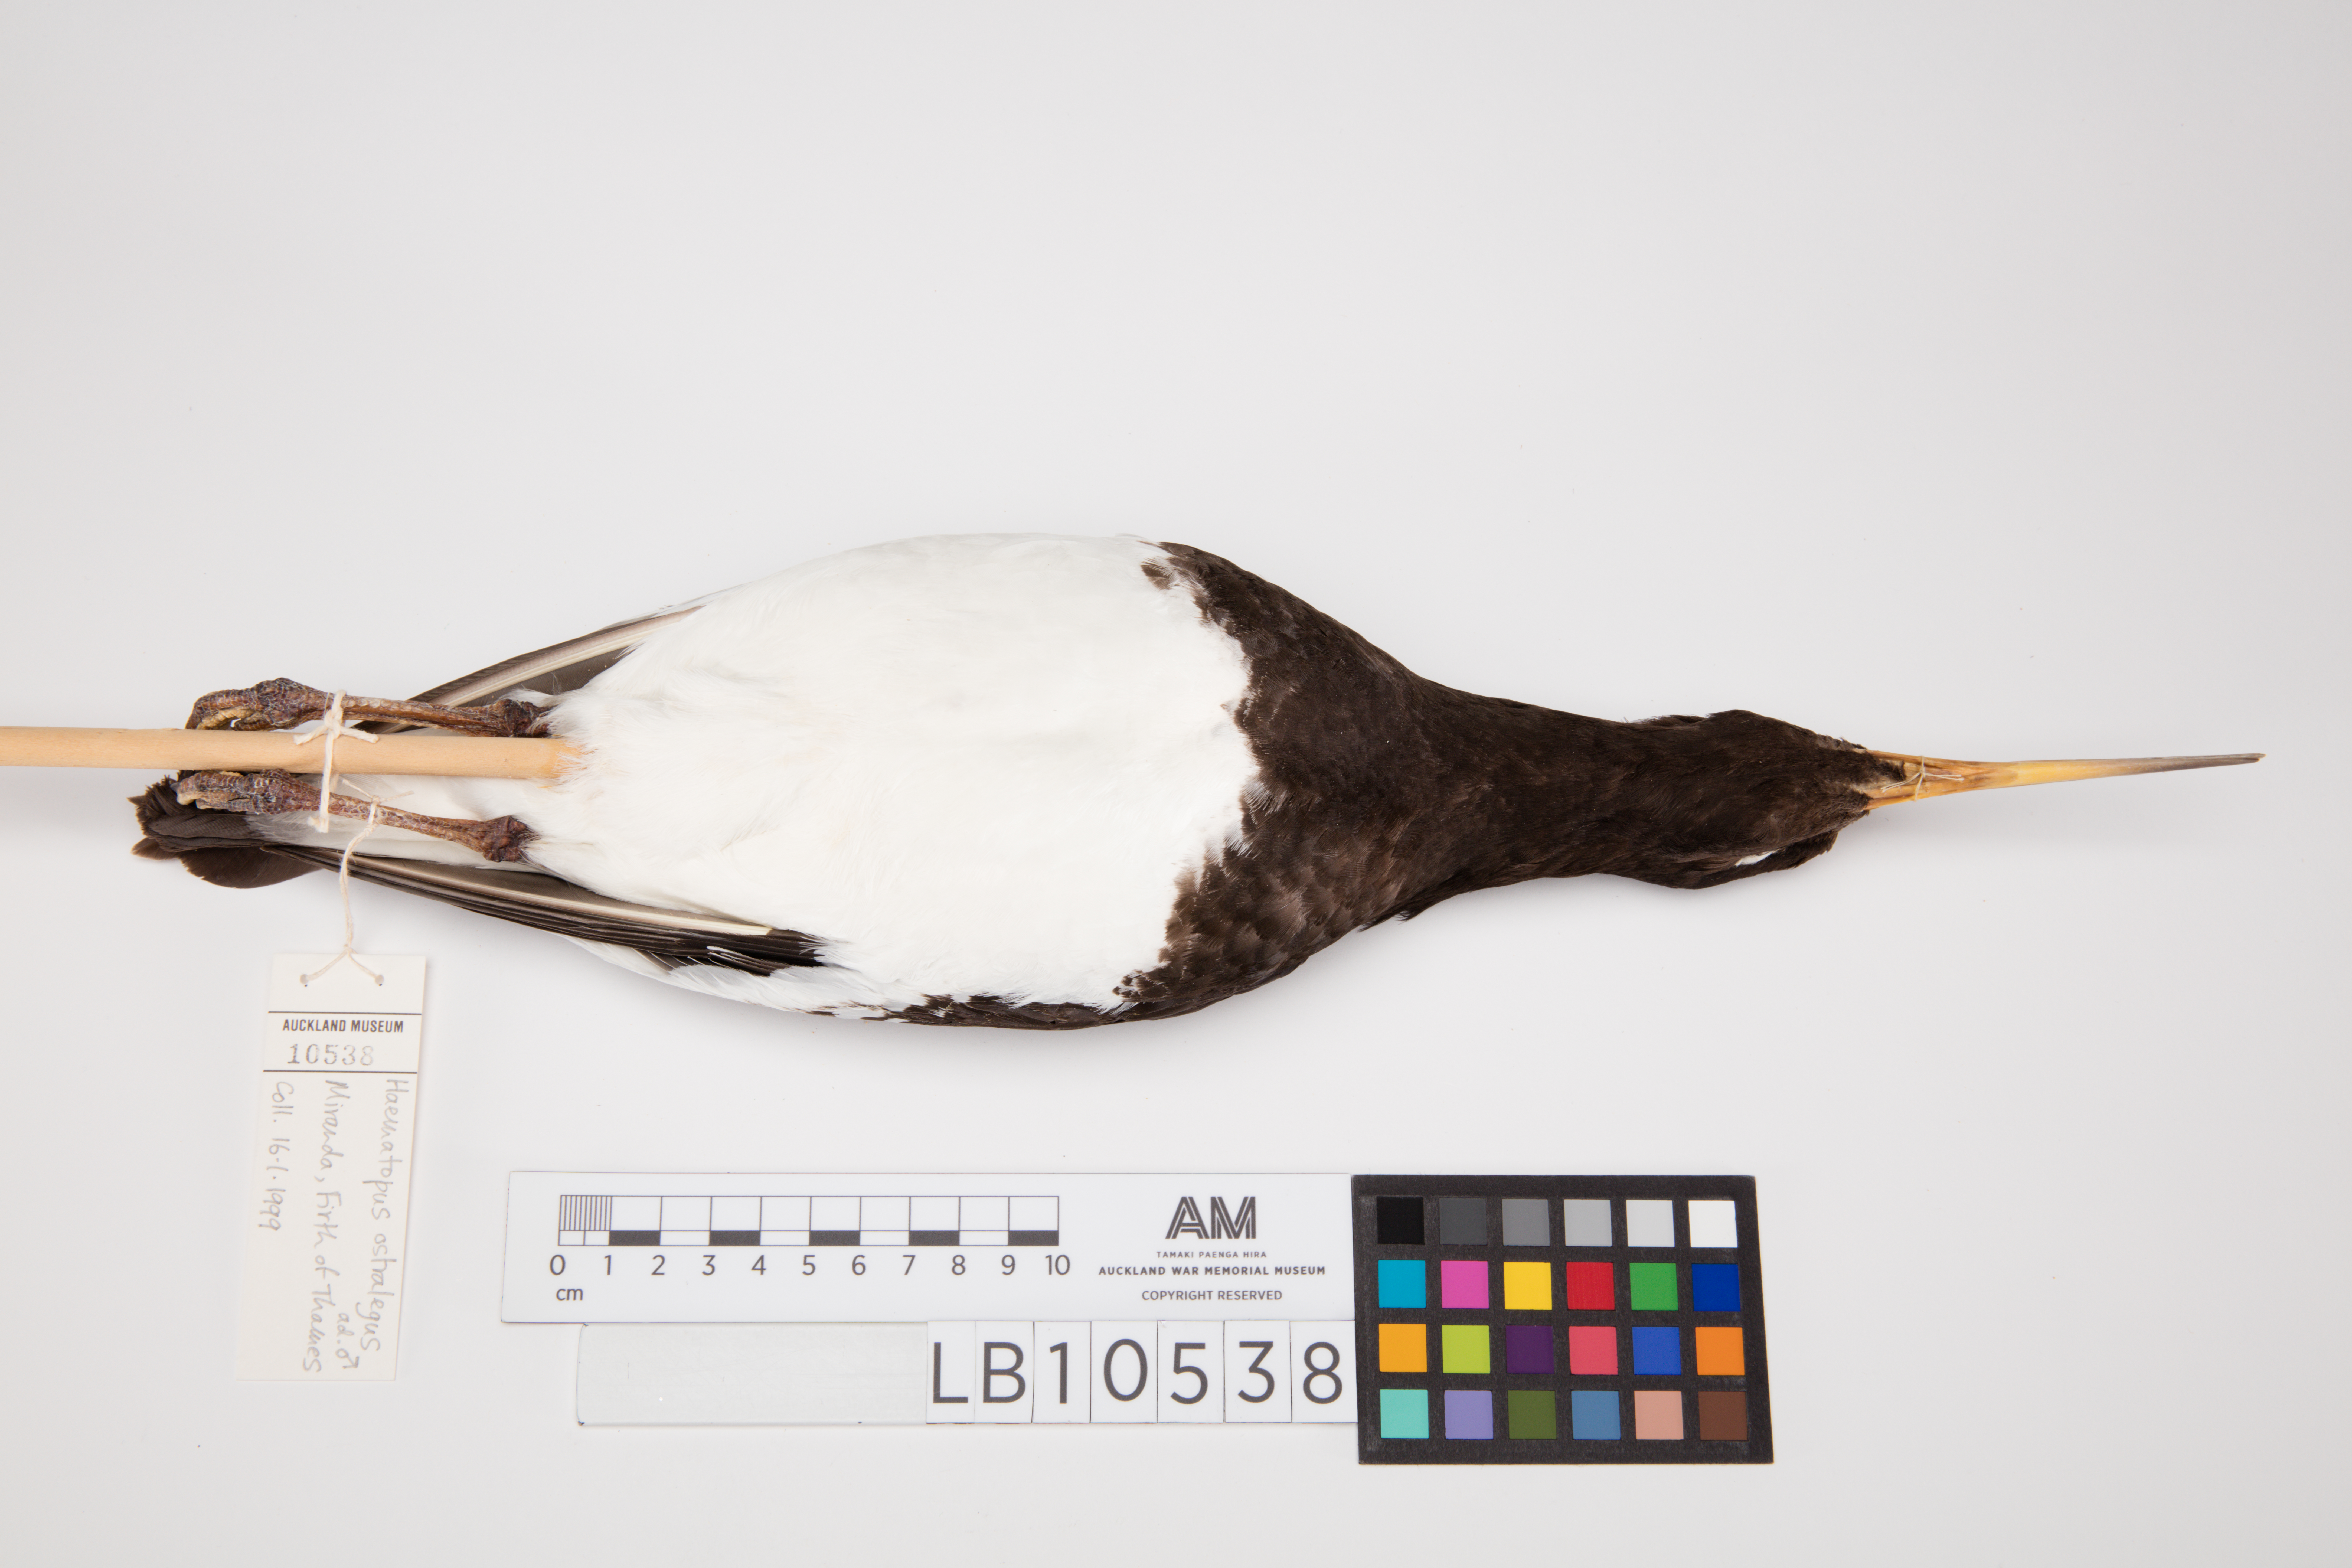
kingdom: Animalia
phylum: Chordata
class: Aves
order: Charadriiformes
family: Haematopodidae
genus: Haematopus
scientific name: Haematopus finschi
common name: South island oystercatcher
